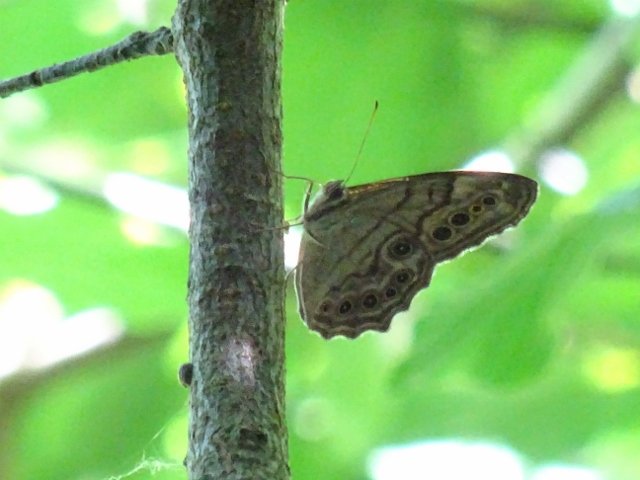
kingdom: Animalia
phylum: Arthropoda
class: Insecta
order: Lepidoptera
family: Nymphalidae
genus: Lethe
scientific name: Lethe anthedon
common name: Northern Pearly-Eye
